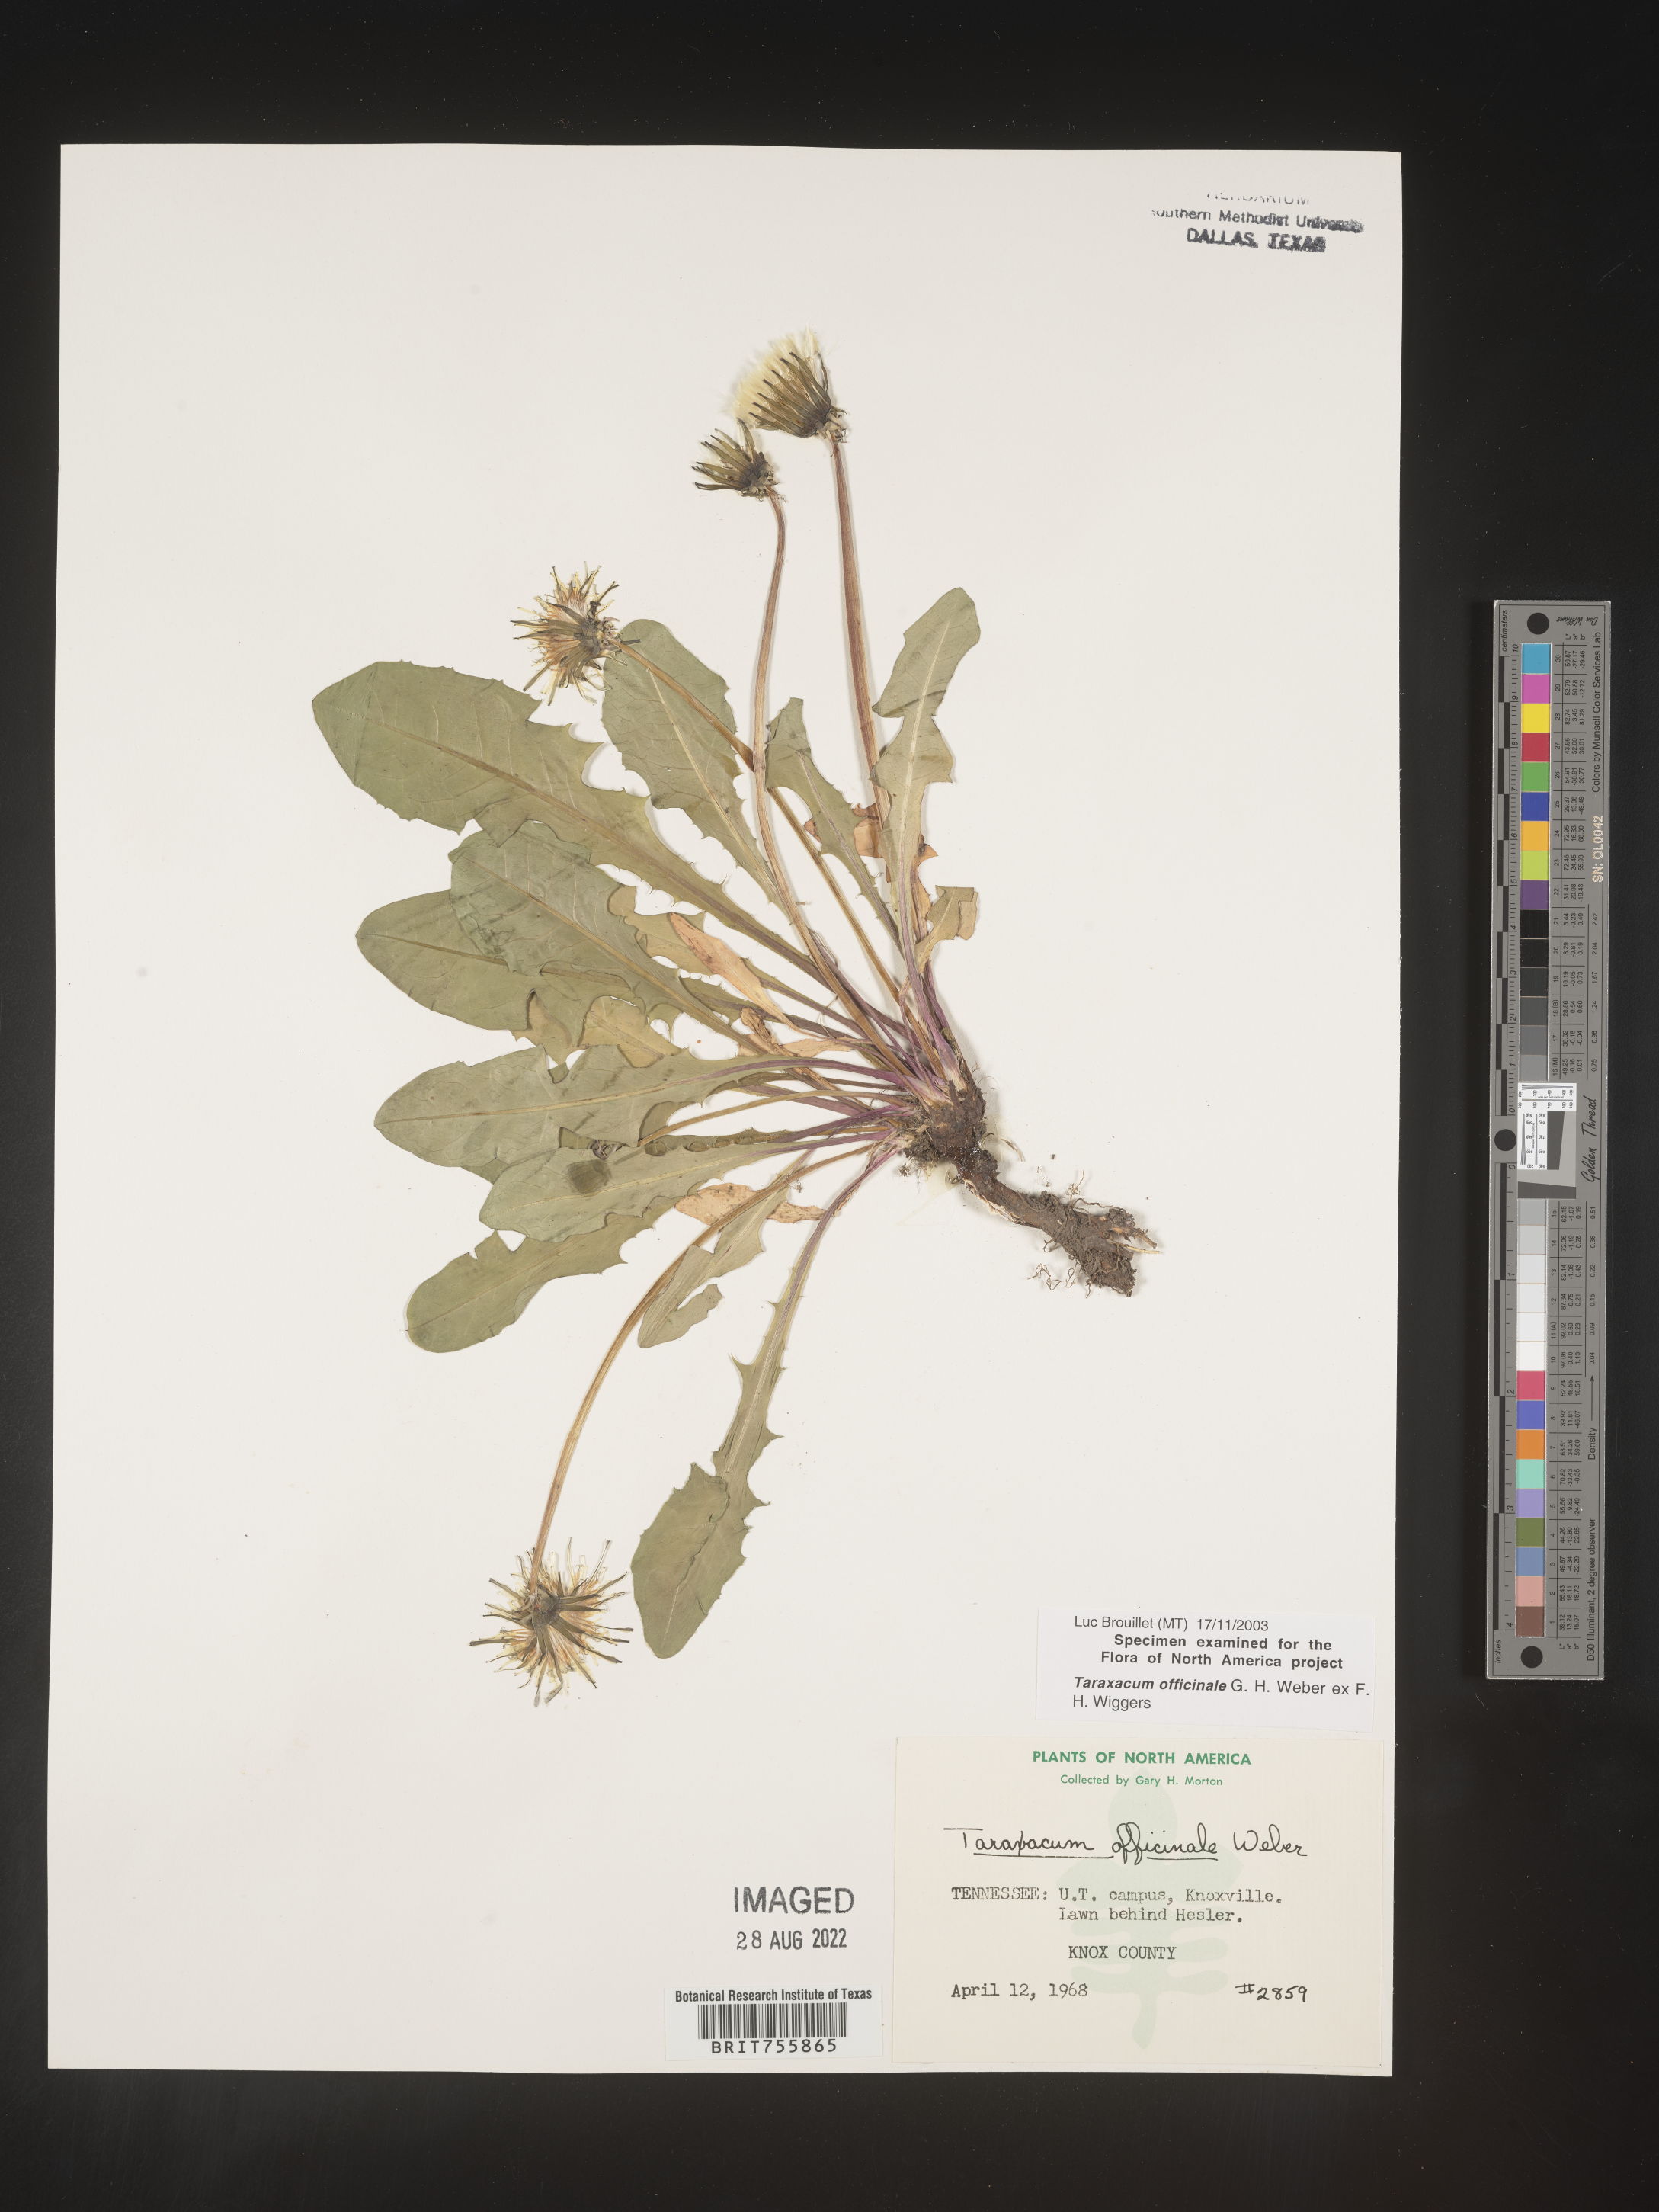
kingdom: Plantae
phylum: Tracheophyta
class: Magnoliopsida
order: Asterales
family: Asteraceae
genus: Taraxacum
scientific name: Taraxacum officinale
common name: Common dandelion
